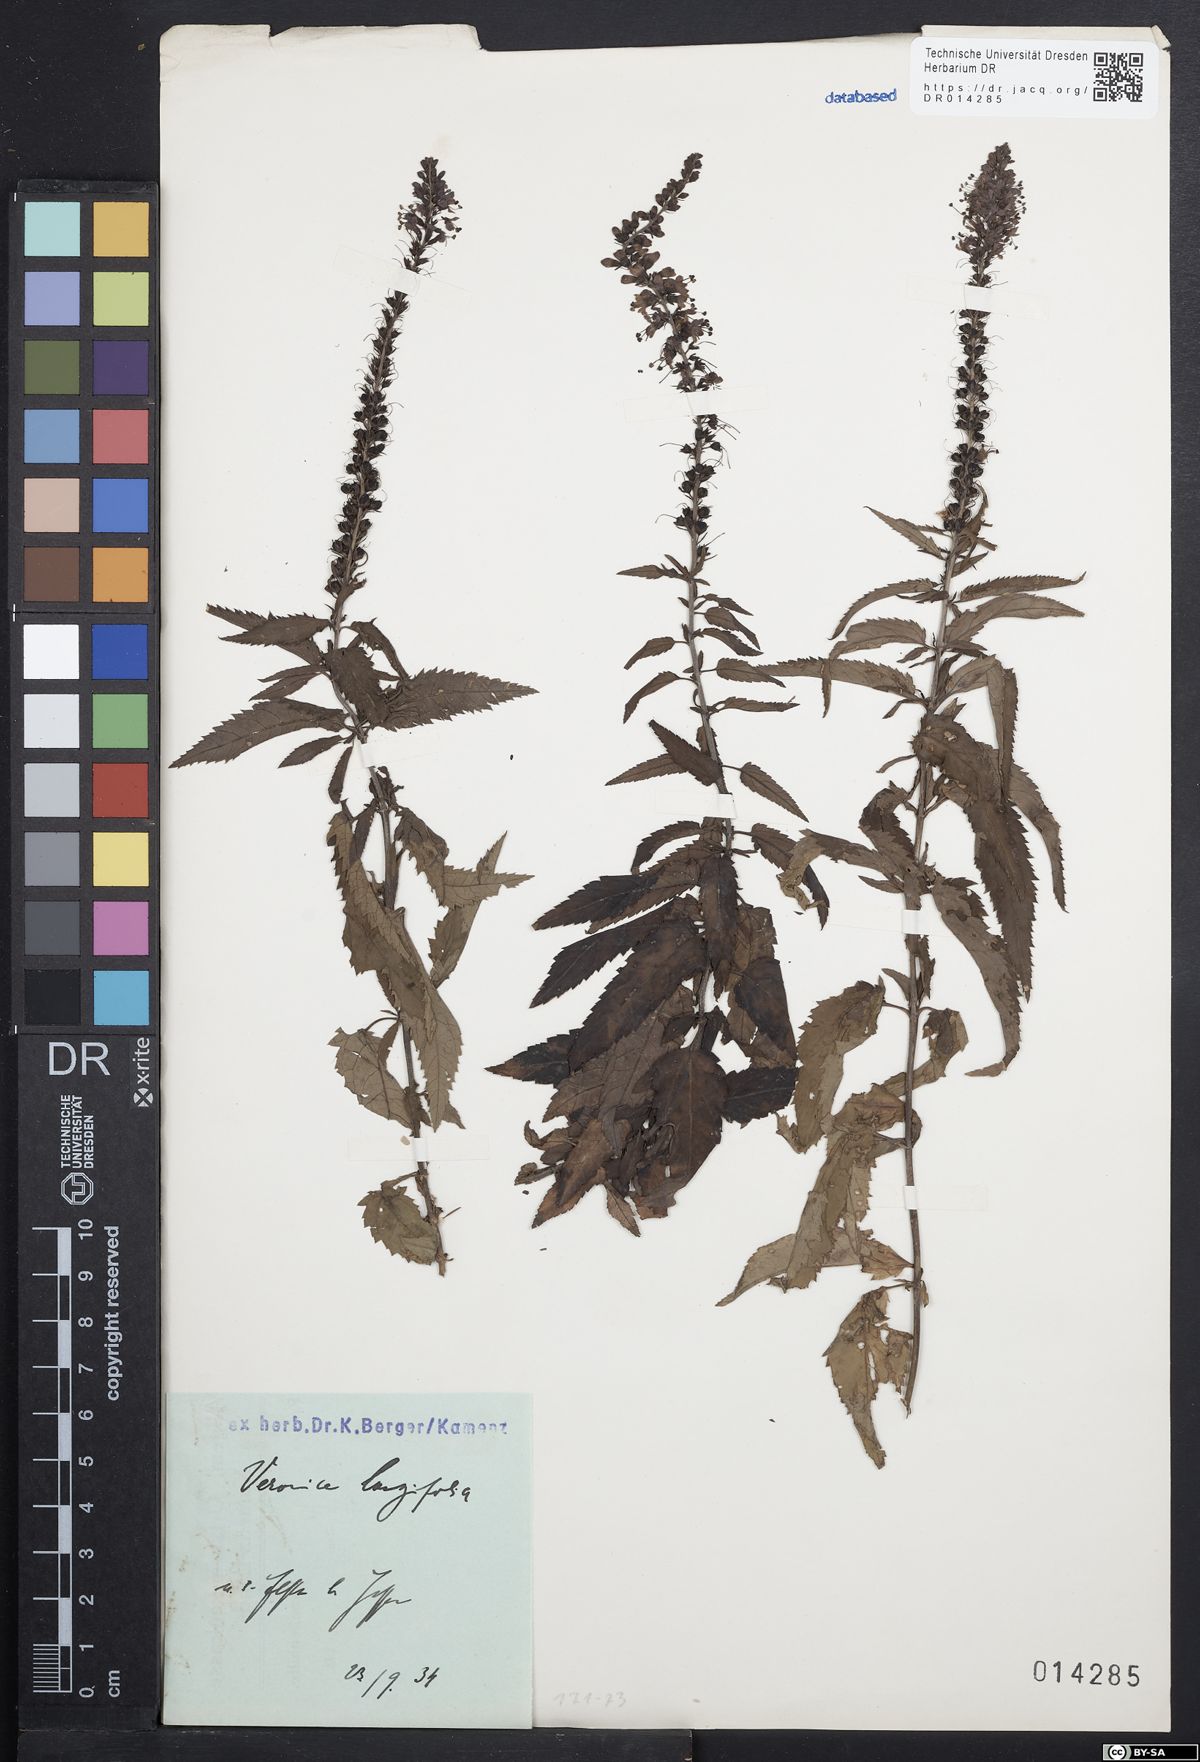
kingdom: Plantae
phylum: Tracheophyta
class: Magnoliopsida
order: Lamiales
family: Plantaginaceae
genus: Veronica
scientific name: Veronica longifolia
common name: Garden speedwell
